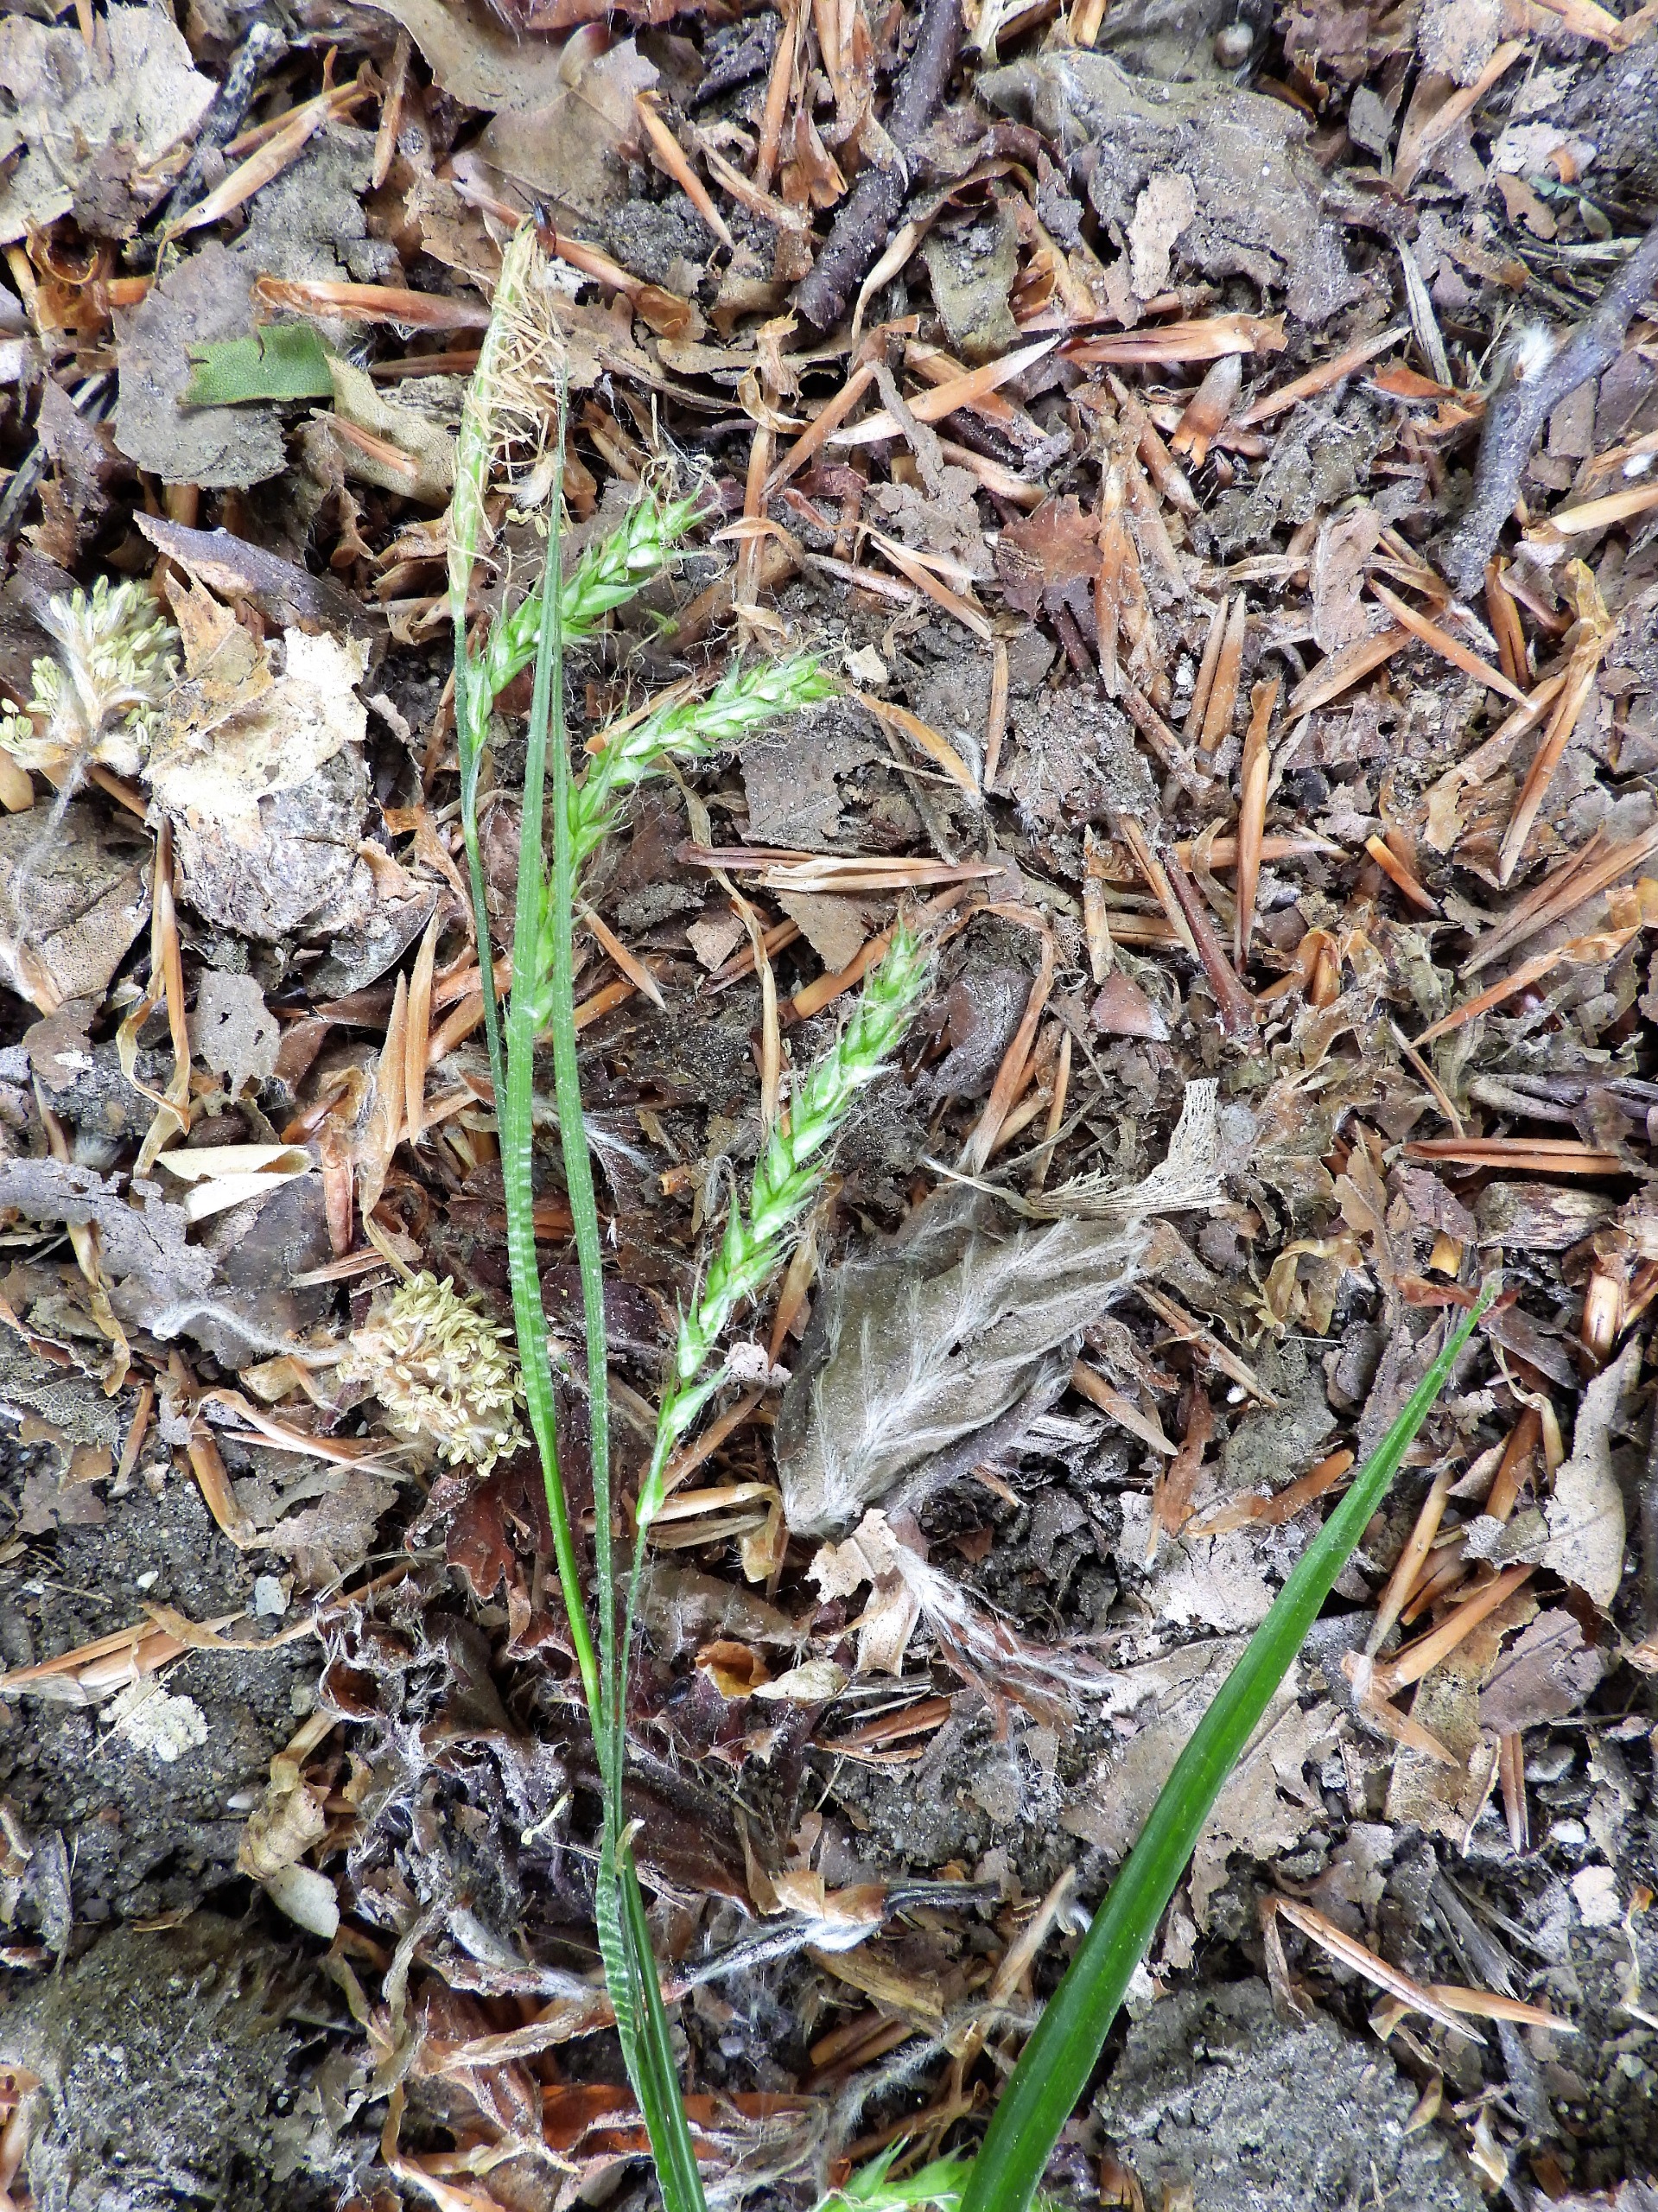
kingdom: Plantae
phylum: Tracheophyta
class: Liliopsida
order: Poales
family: Cyperaceae
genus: Carex
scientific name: Carex sylvatica
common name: Skov-star
